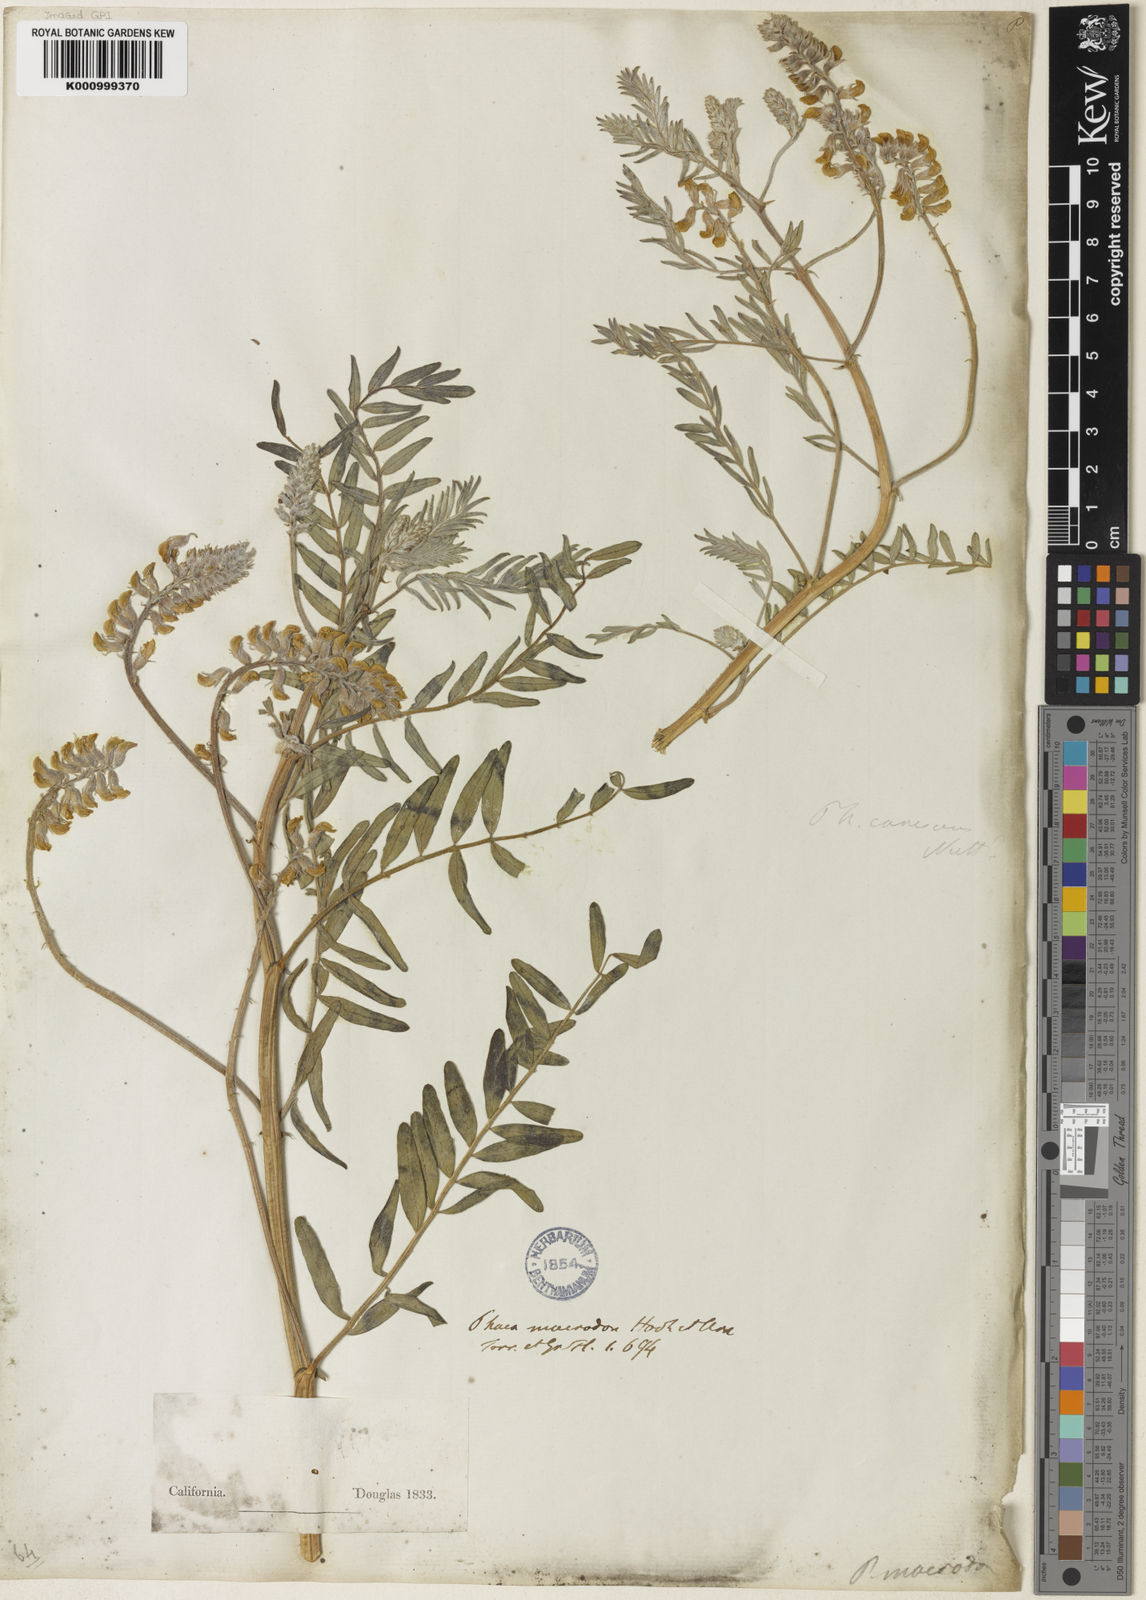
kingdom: Plantae
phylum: Tracheophyta
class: Magnoliopsida
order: Fabales
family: Fabaceae
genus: Astragalus
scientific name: Astragalus macrodon
